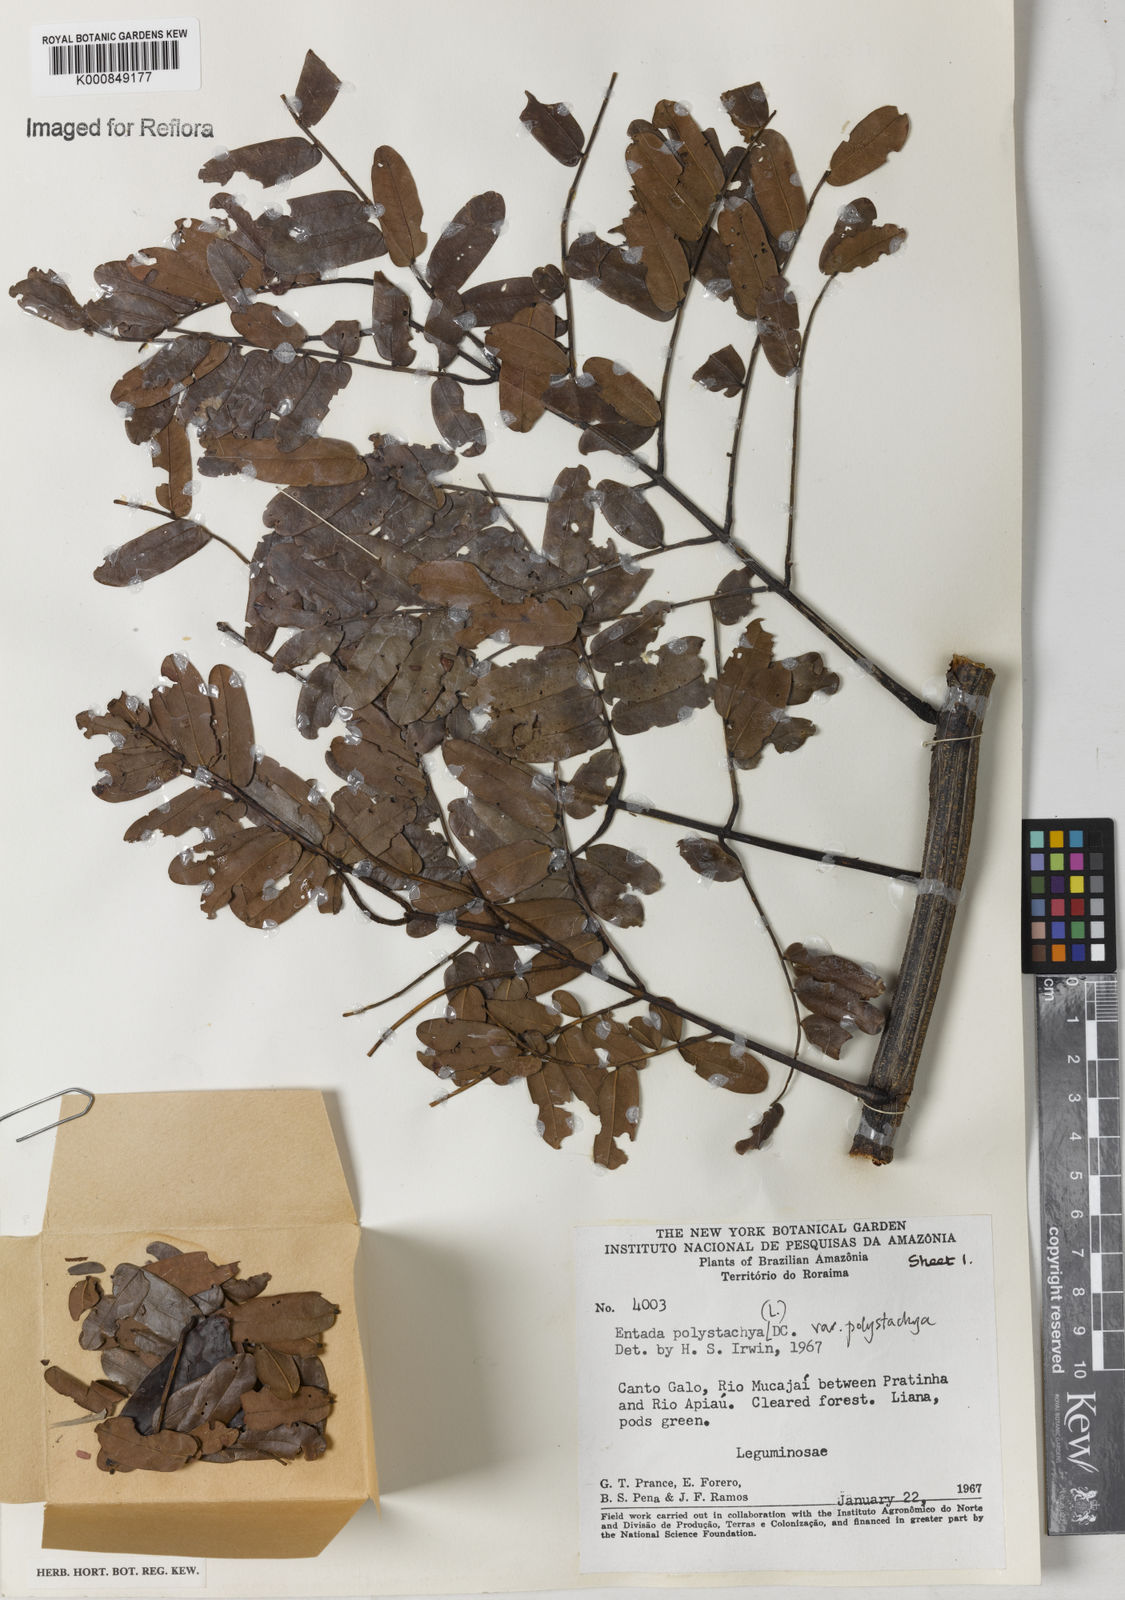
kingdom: Plantae
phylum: Tracheophyta
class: Magnoliopsida
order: Fabales
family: Fabaceae
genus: Entada
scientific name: Entada polystachya
